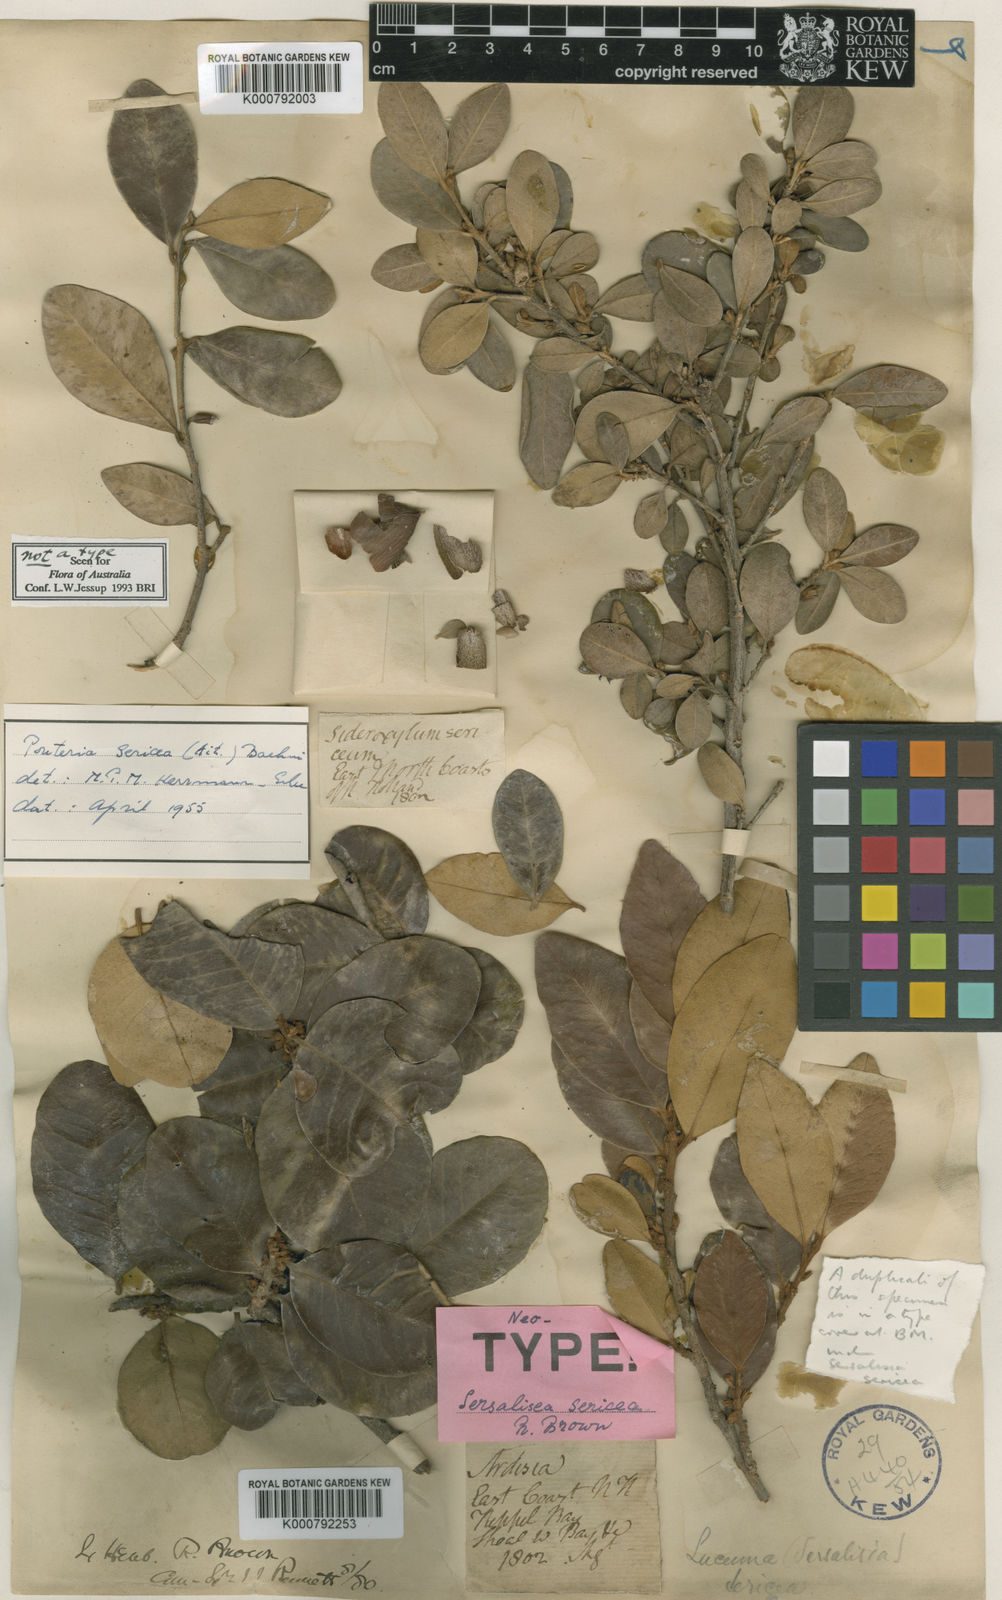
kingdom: Plantae
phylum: Tracheophyta
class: Magnoliopsida
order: Ericales
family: Sapotaceae
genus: Sersalisia
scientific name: Sersalisia sericea
